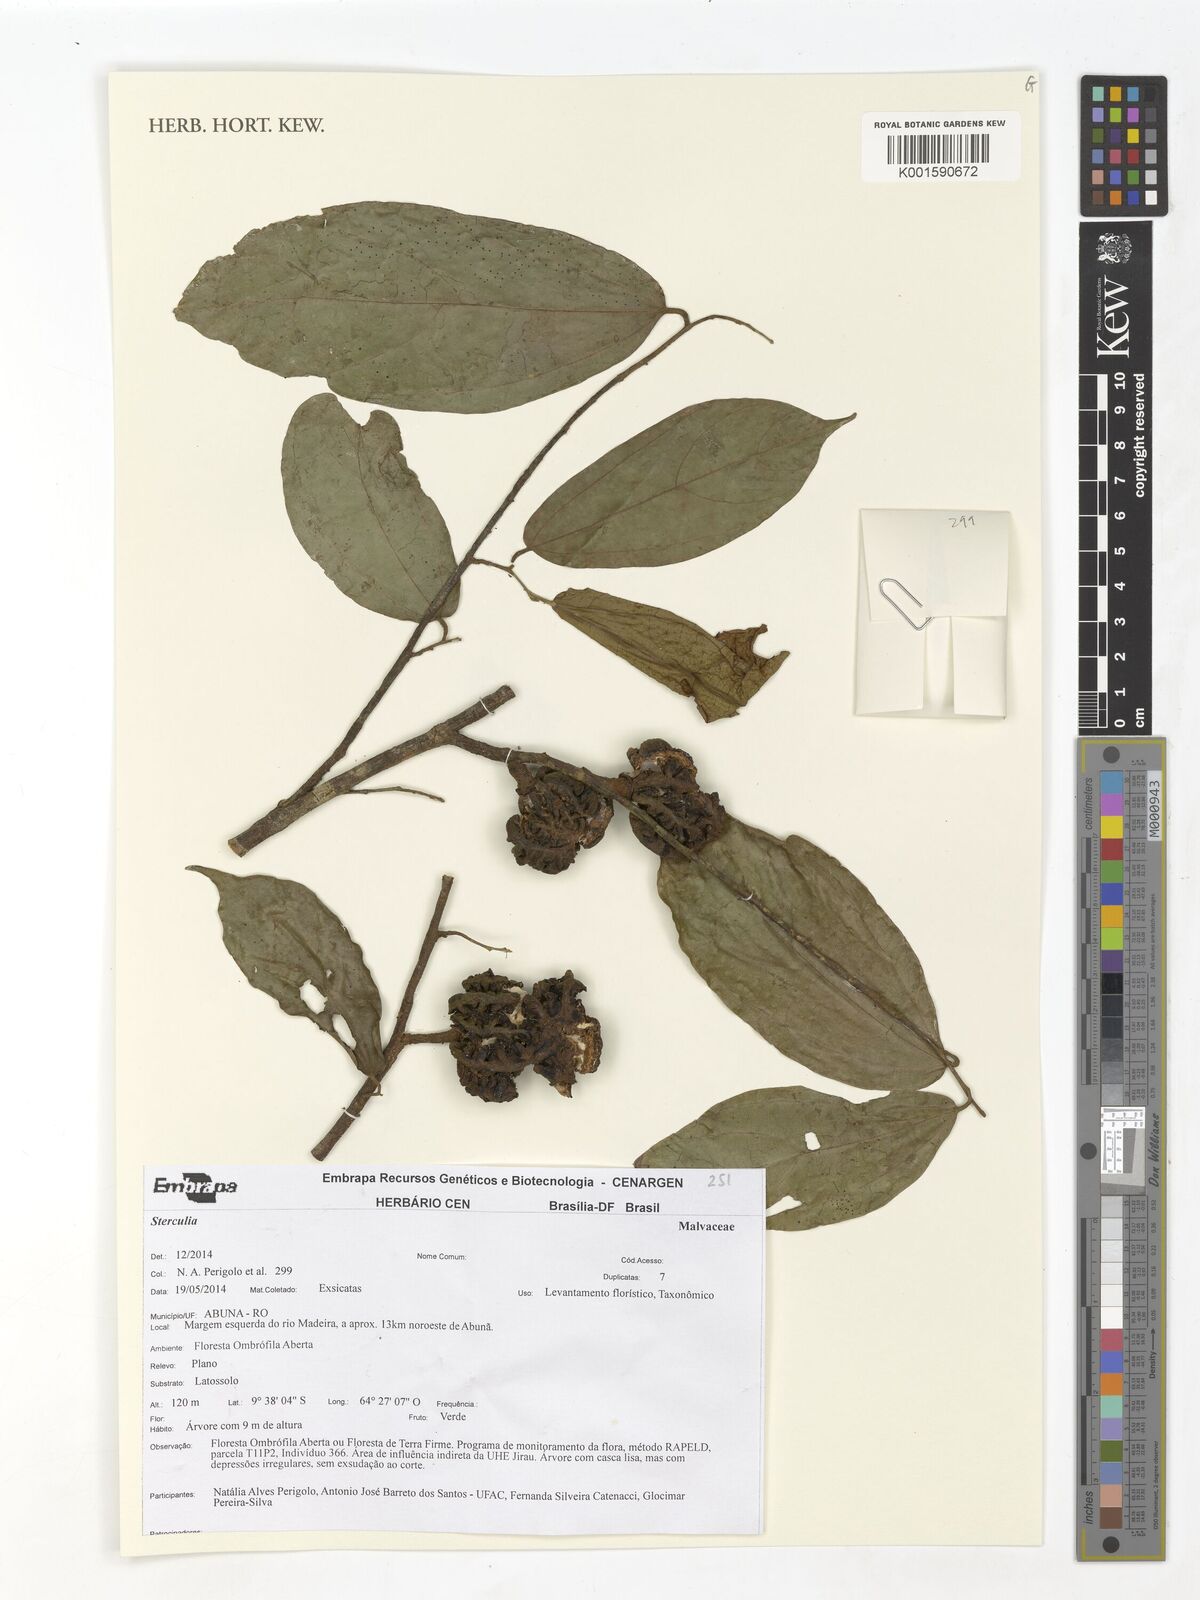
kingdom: Plantae
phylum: Tracheophyta
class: Magnoliopsida
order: Malvales
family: Malvaceae
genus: Sterculia
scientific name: Sterculia
